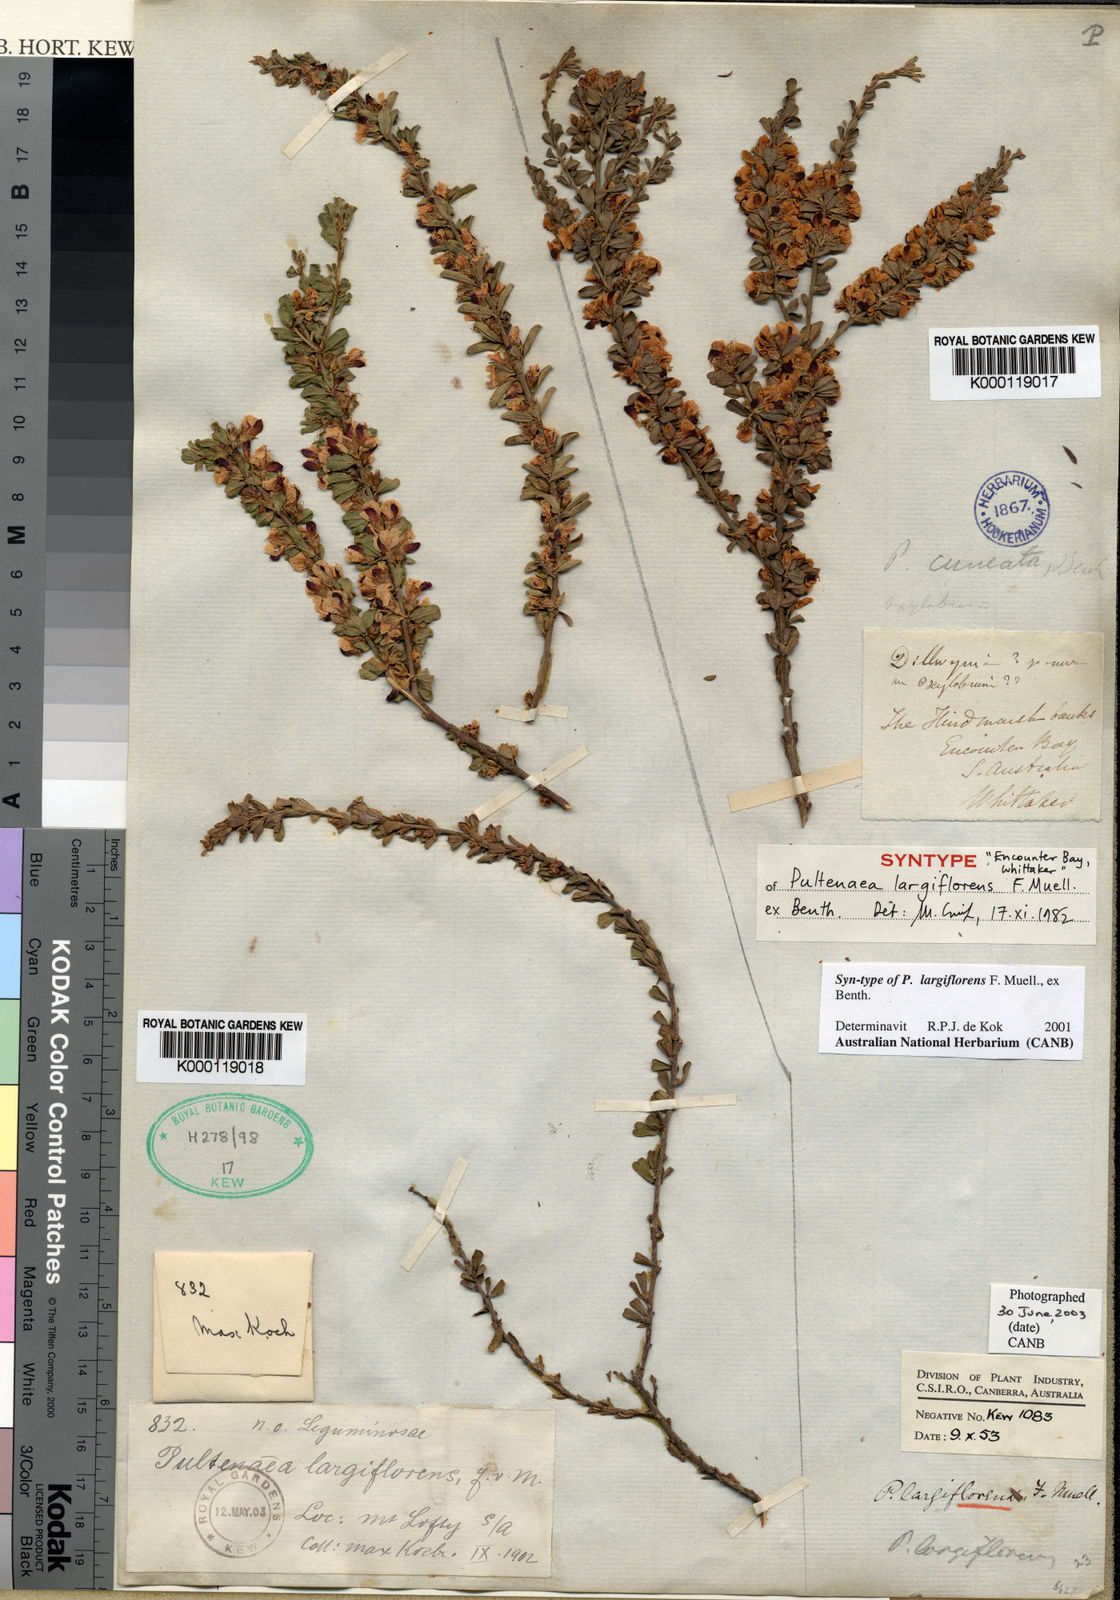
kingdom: Plantae
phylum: Tracheophyta
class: Magnoliopsida
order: Fabales
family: Fabaceae
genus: Pultenaea
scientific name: Pultenaea largiflorens
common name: Twiggy bush-pea
